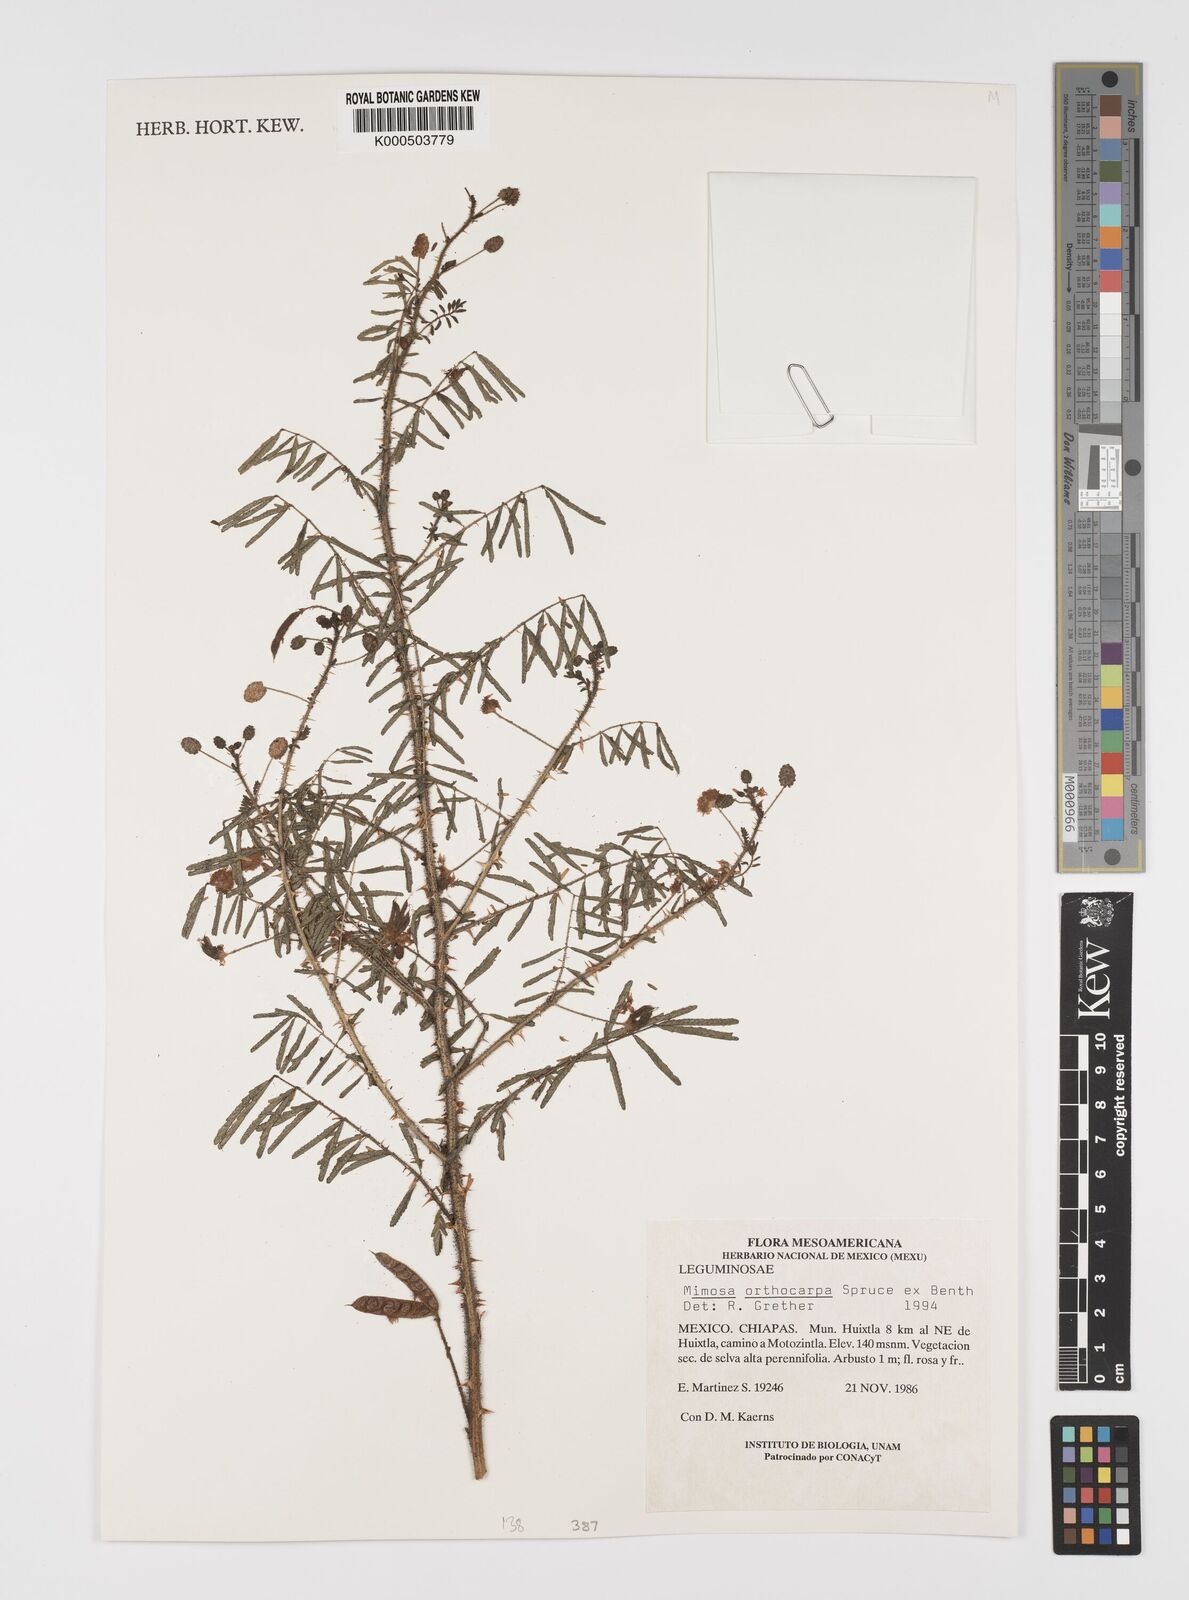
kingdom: Plantae
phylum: Tracheophyta
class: Magnoliopsida
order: Fabales
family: Fabaceae
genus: Mimosa
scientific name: Mimosa orthocarpa
